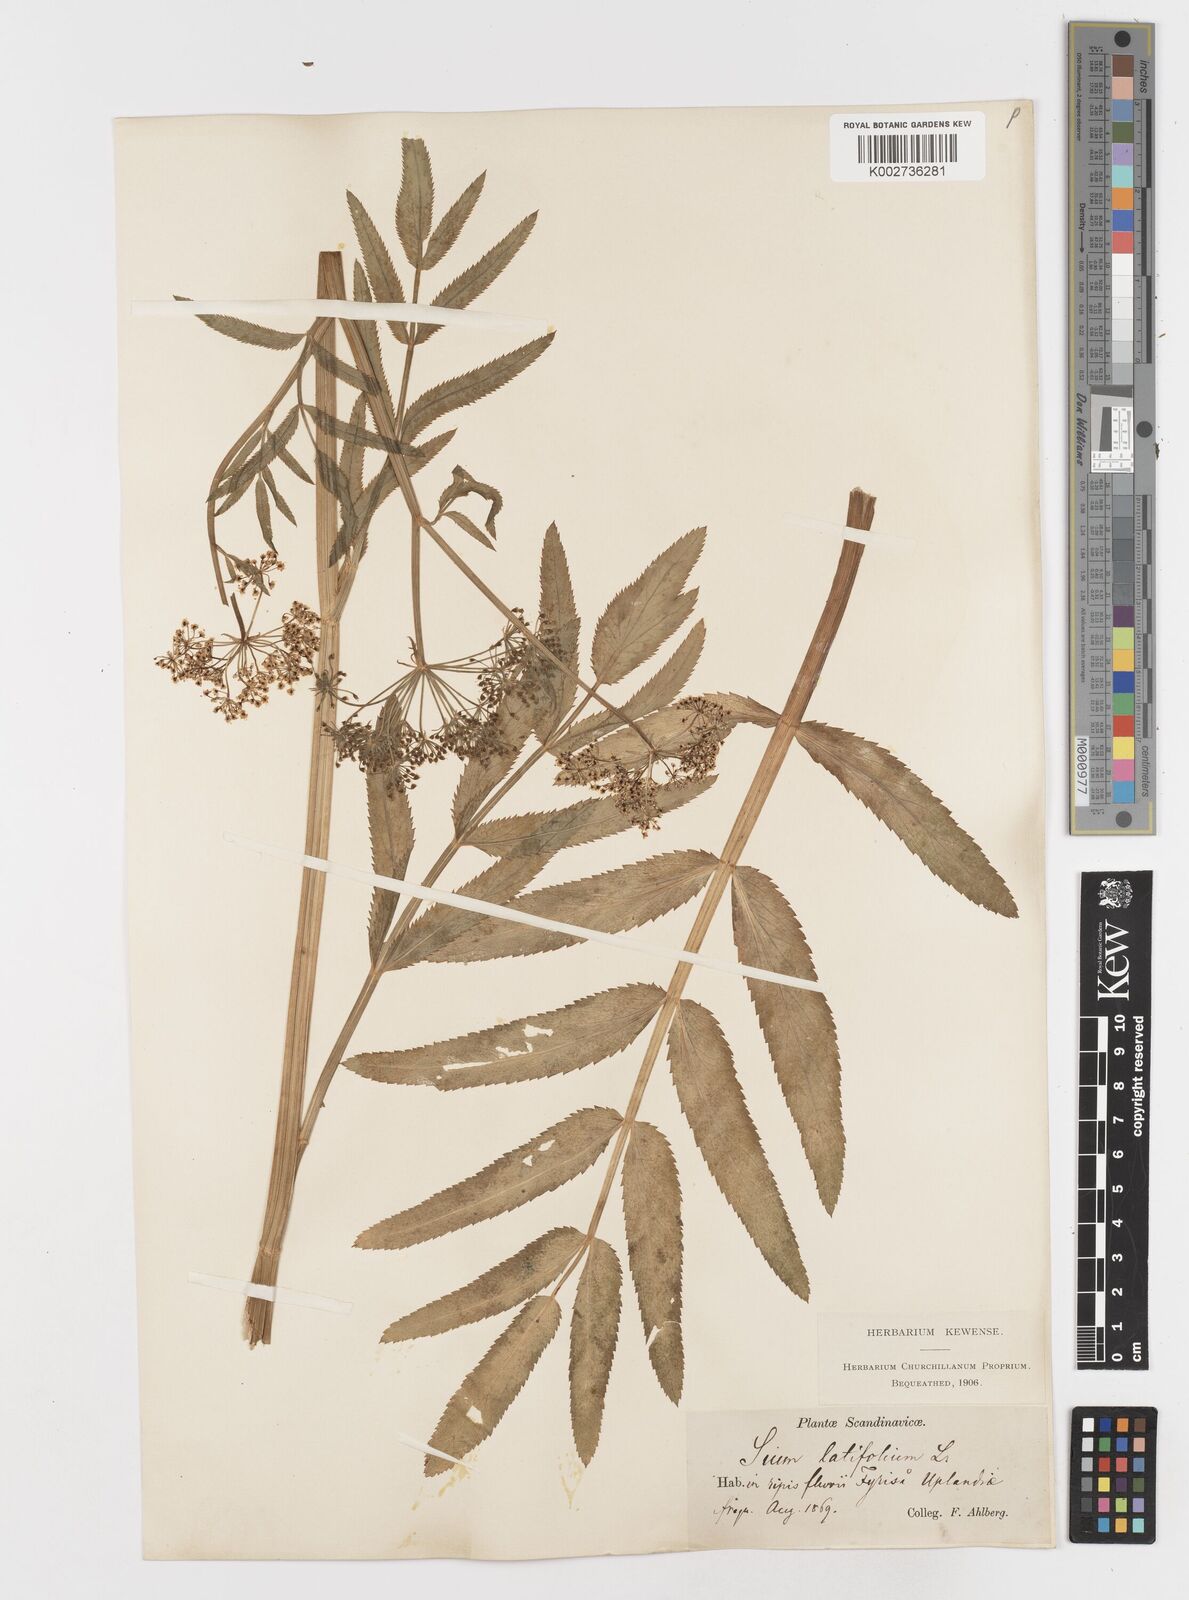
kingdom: Plantae
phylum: Tracheophyta
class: Magnoliopsida
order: Apiales
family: Apiaceae
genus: Sium
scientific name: Sium latifolium
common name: Greater water-parsnip
